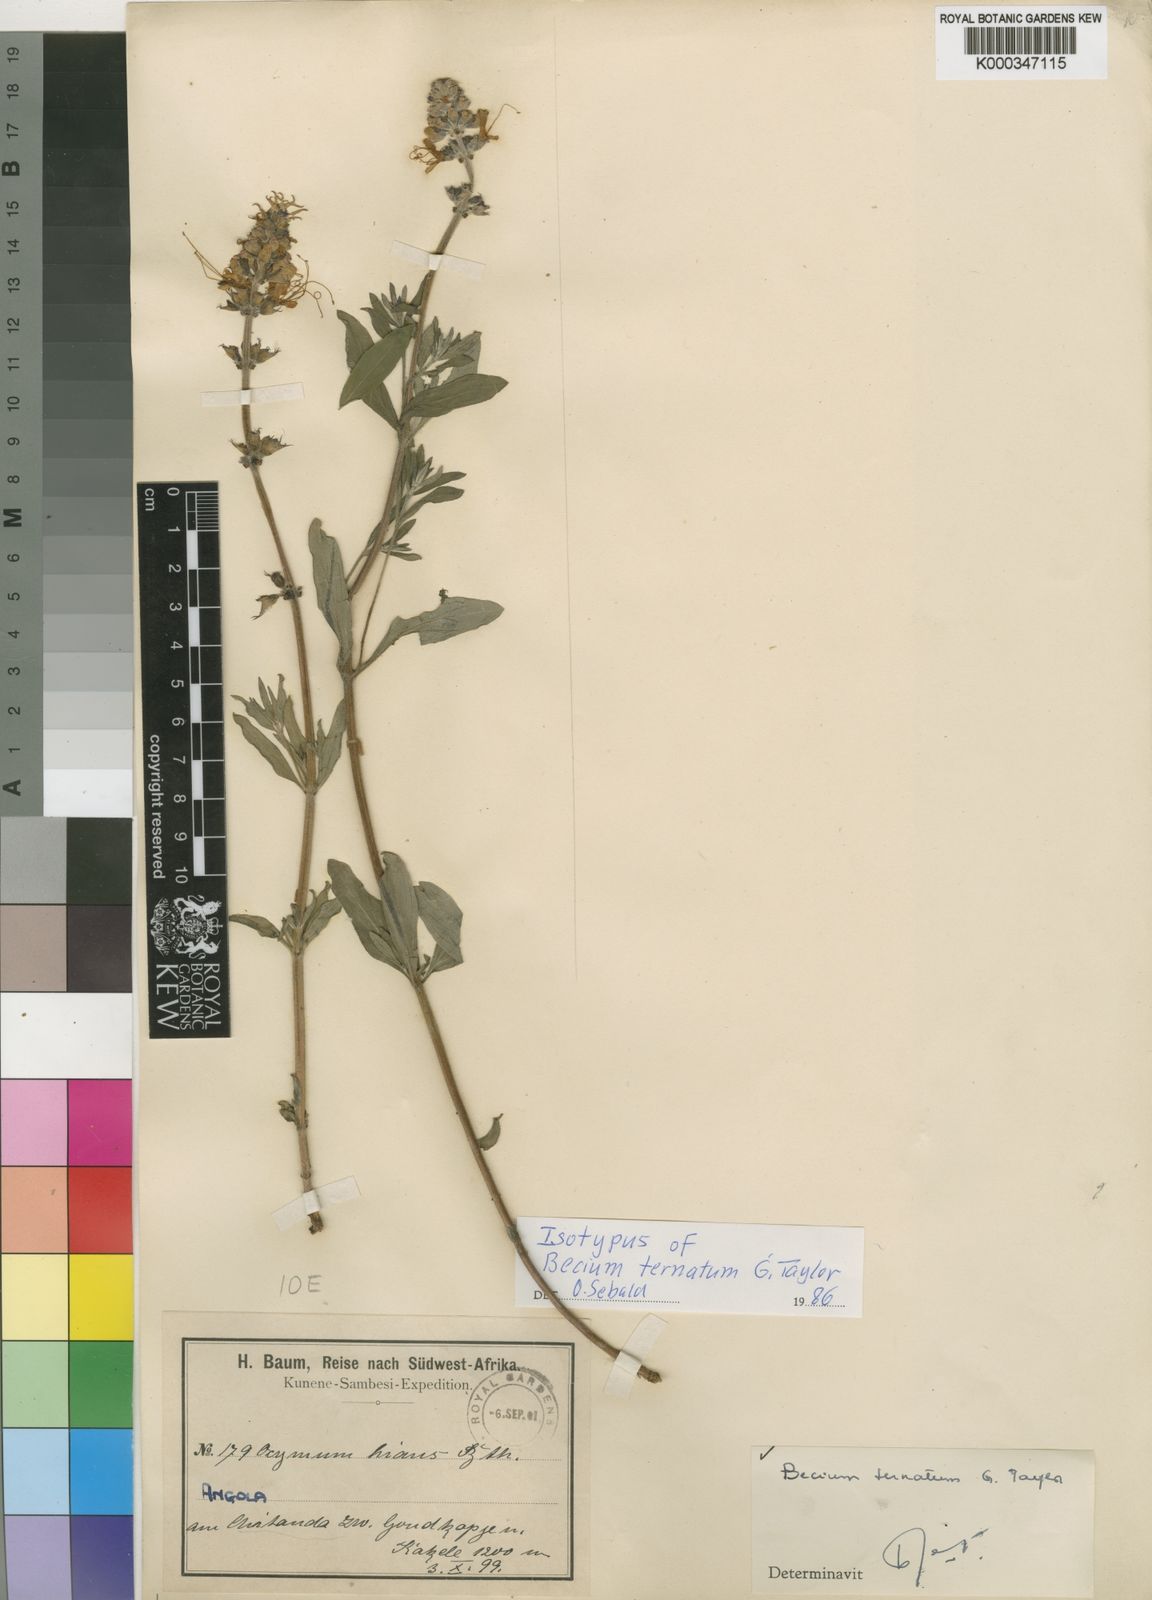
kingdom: Plantae
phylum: Tracheophyta
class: Magnoliopsida
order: Lamiales
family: Lamiaceae
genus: Ocimum
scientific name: Ocimum obovatum
